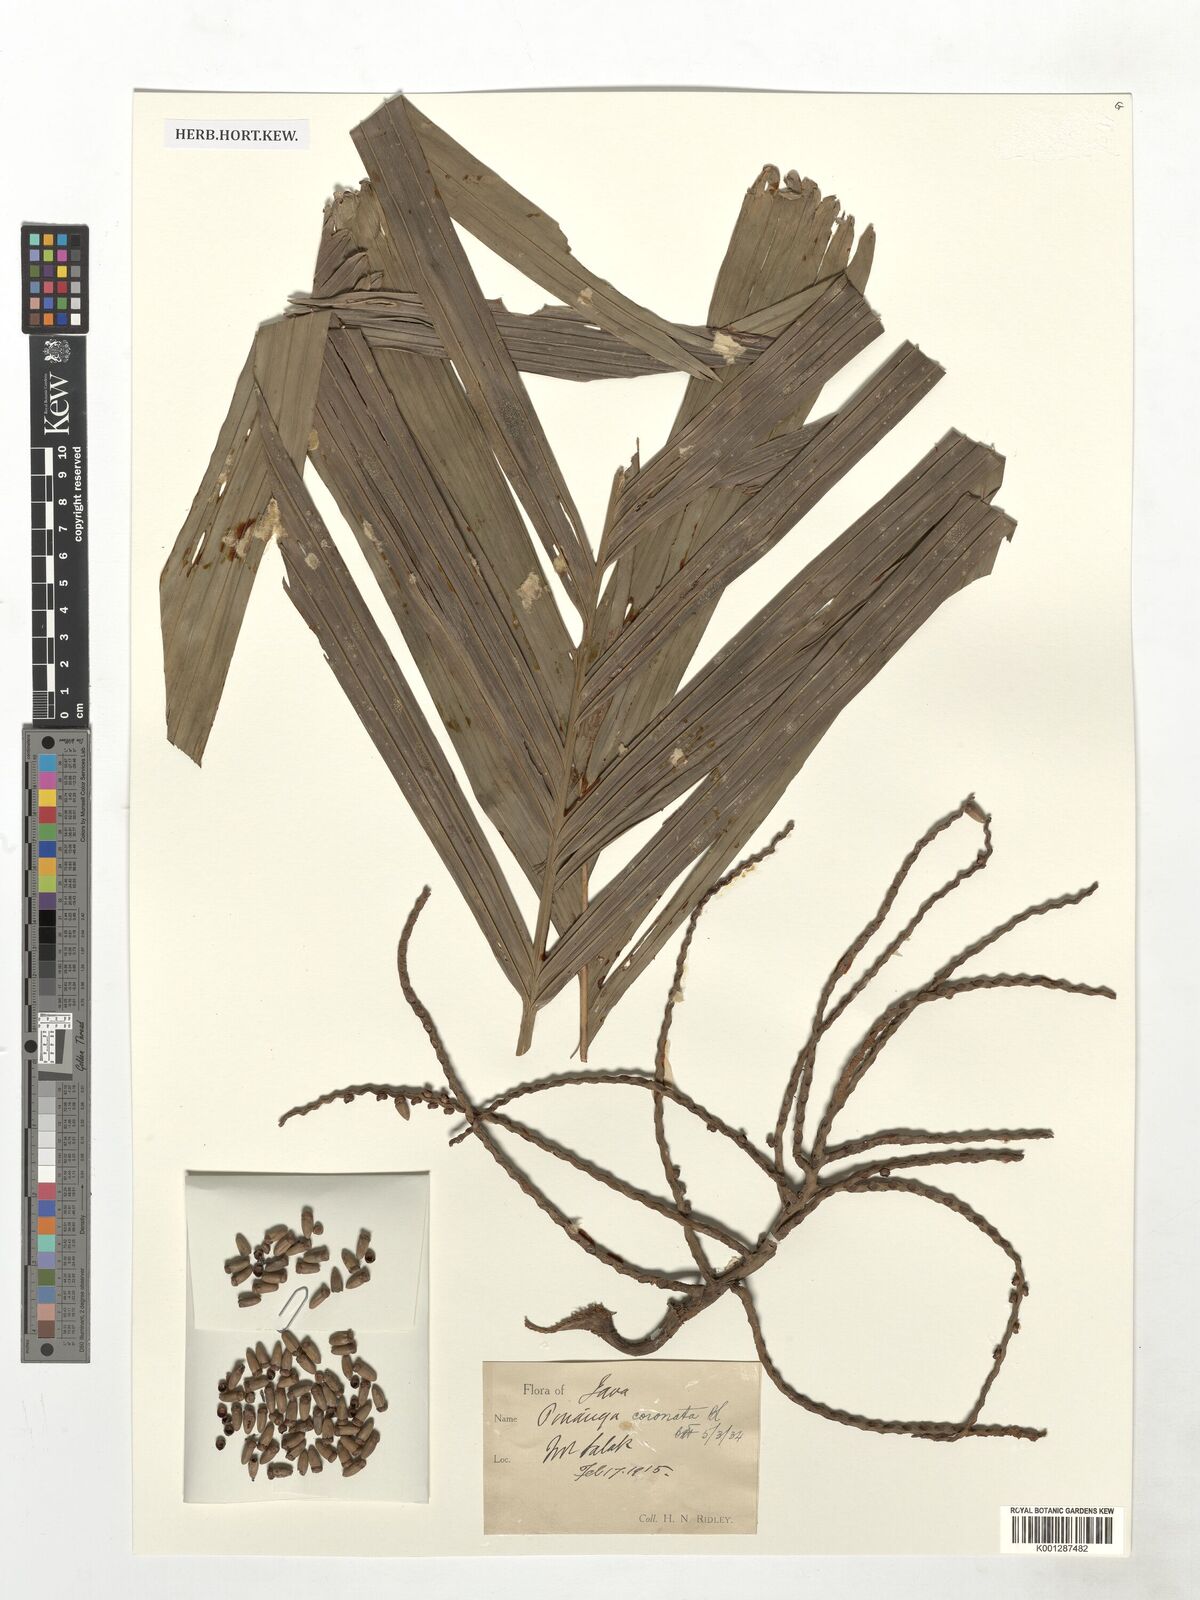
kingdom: Plantae
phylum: Tracheophyta
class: Liliopsida
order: Arecales
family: Arecaceae
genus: Pinanga
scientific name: Pinanga coronata
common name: Ivory cane palm
